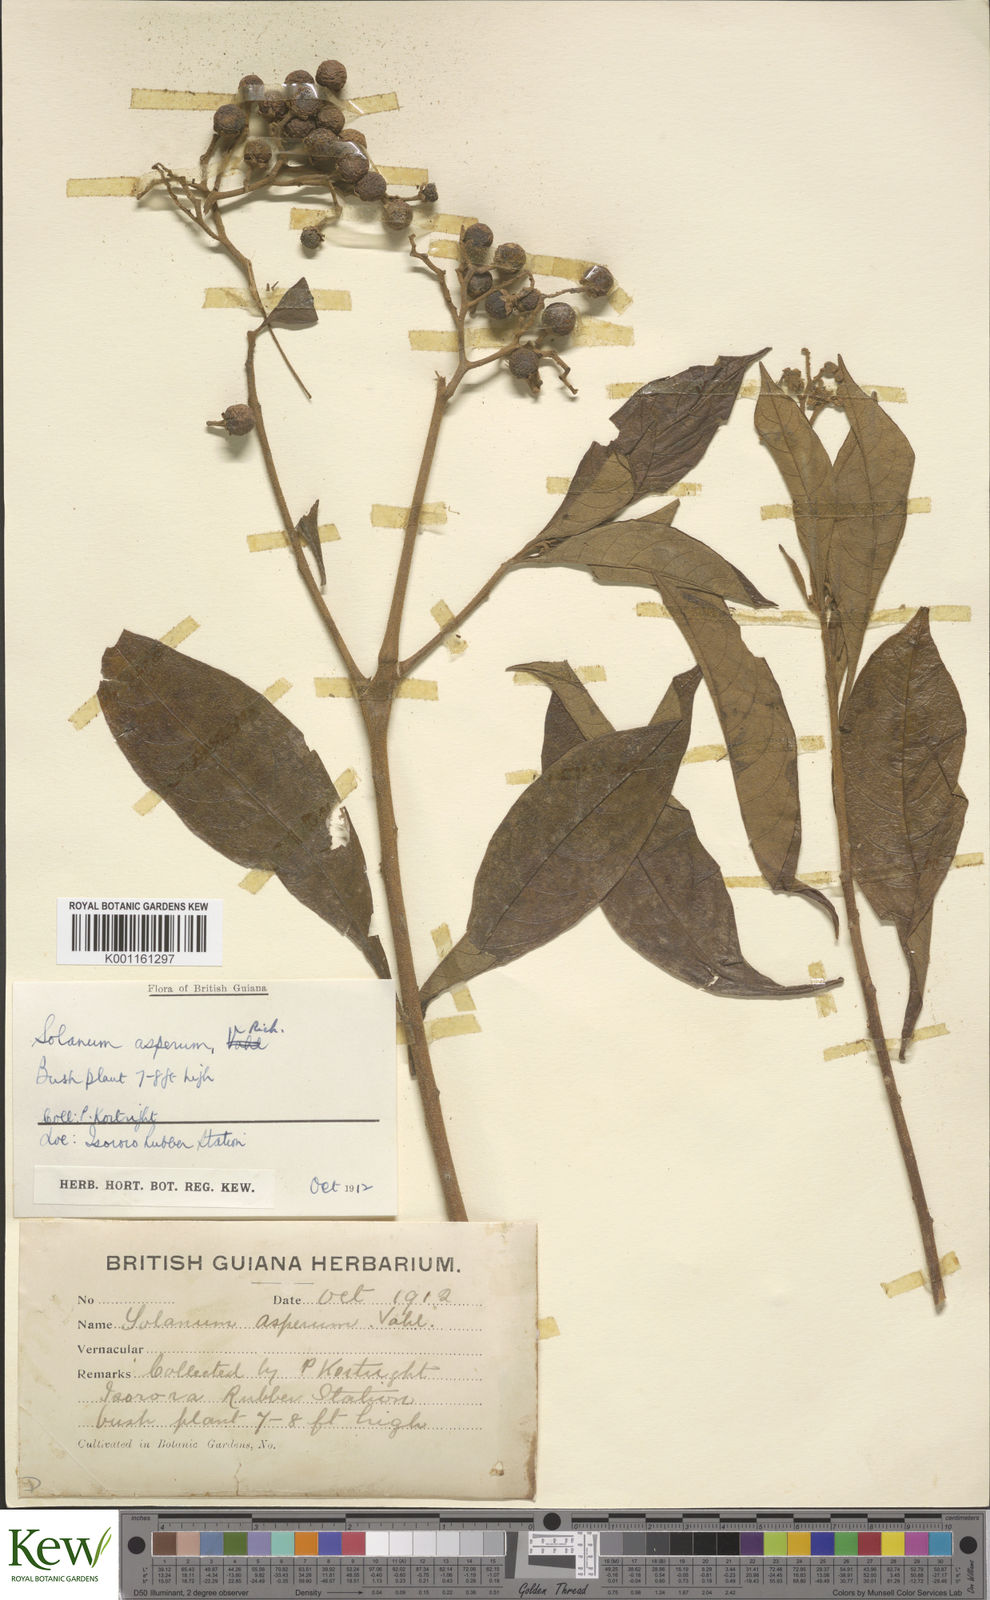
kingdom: Plantae
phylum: Tracheophyta
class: Magnoliopsida
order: Solanales
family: Solanaceae
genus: Solanum
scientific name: Solanum asperum
